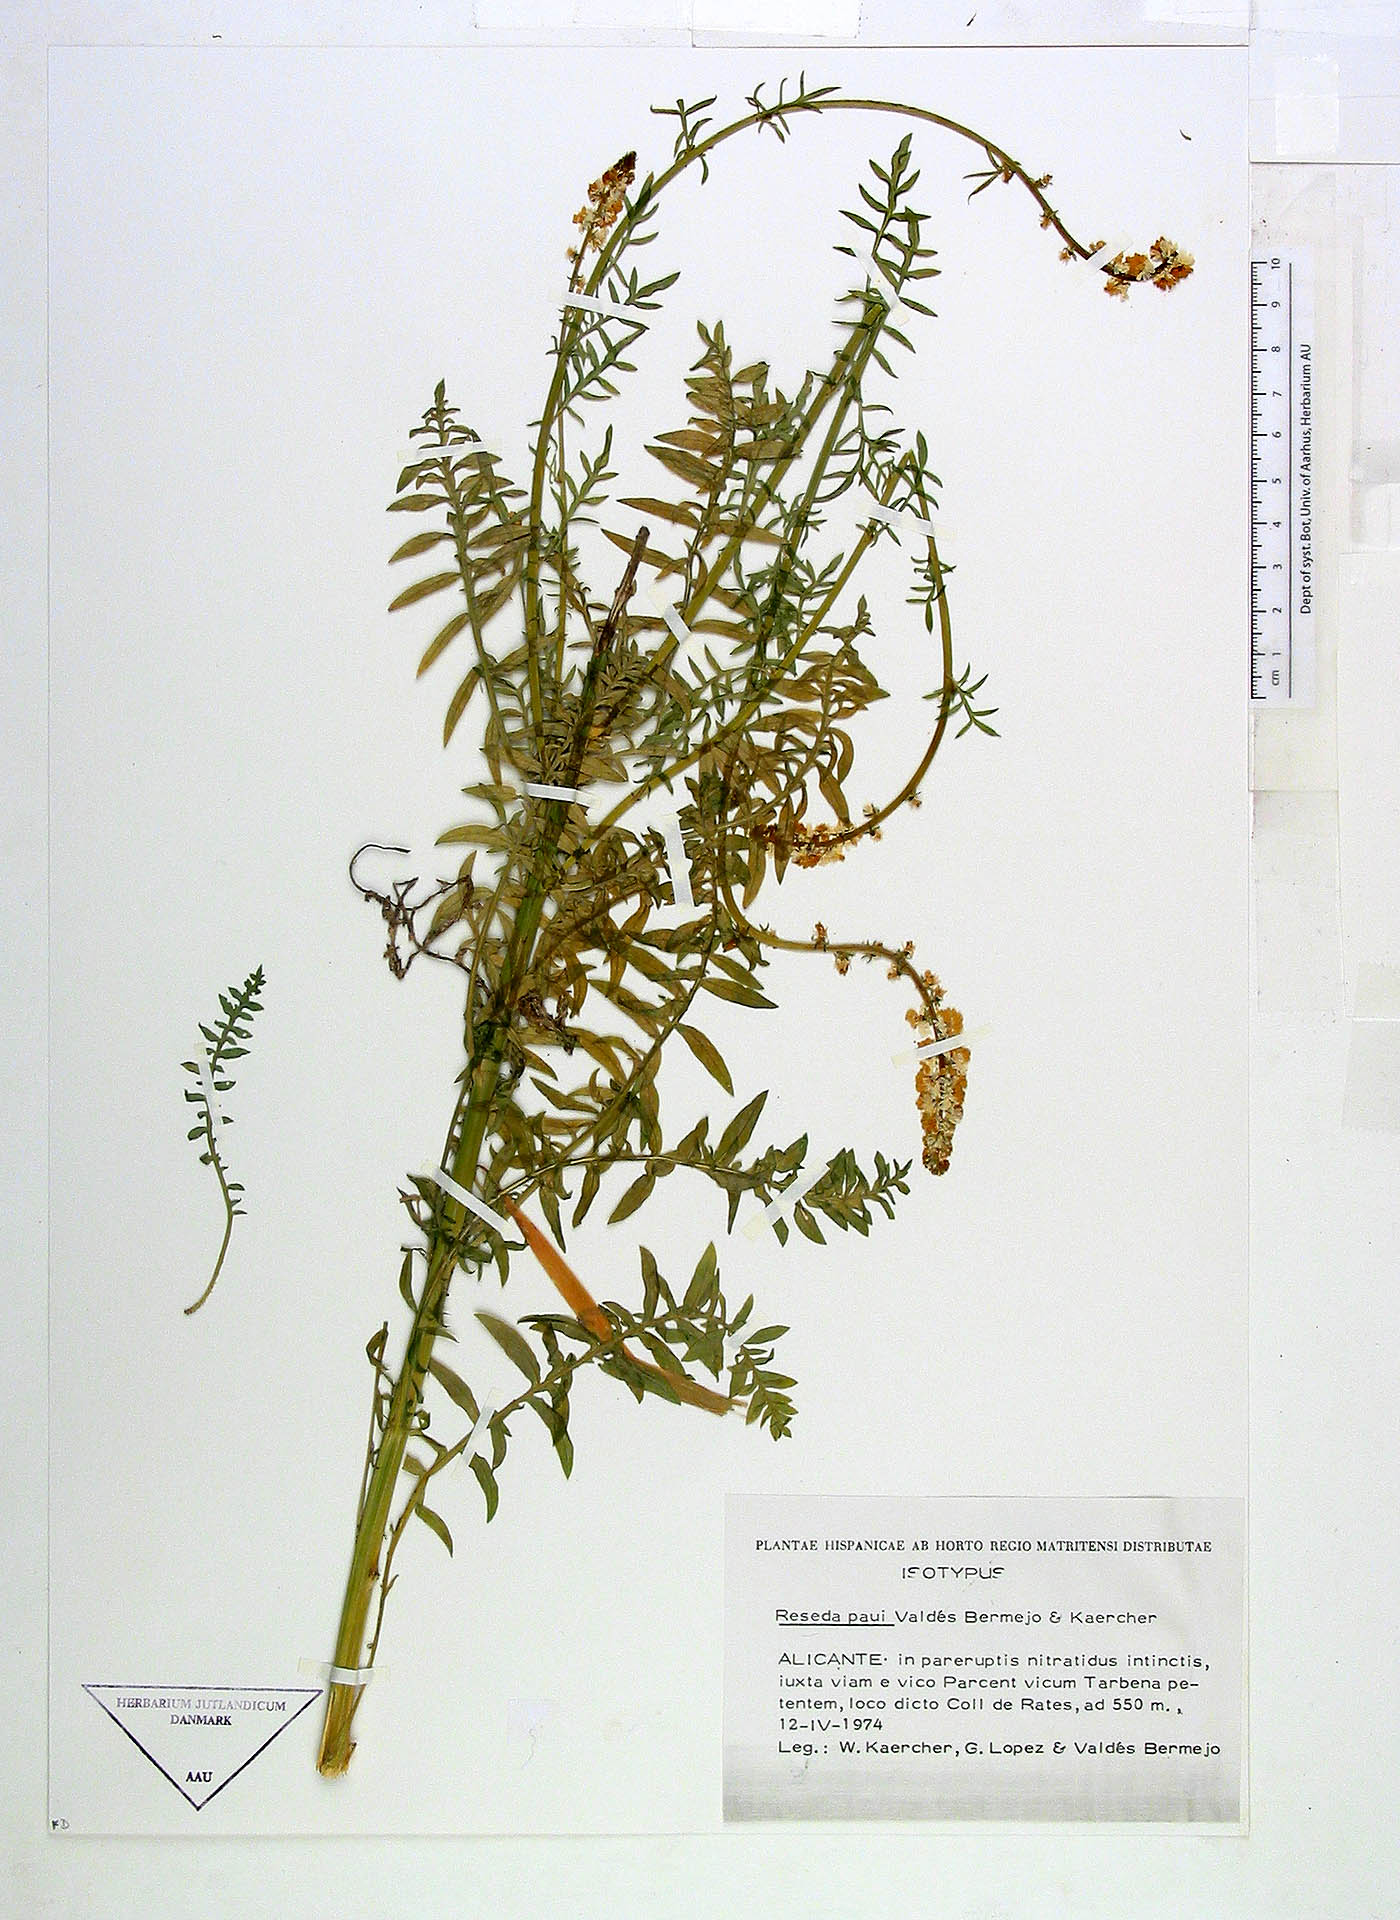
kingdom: Plantae
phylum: Tracheophyta
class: Magnoliopsida
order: Brassicales
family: Resedaceae
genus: Reseda
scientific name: Reseda valentina
